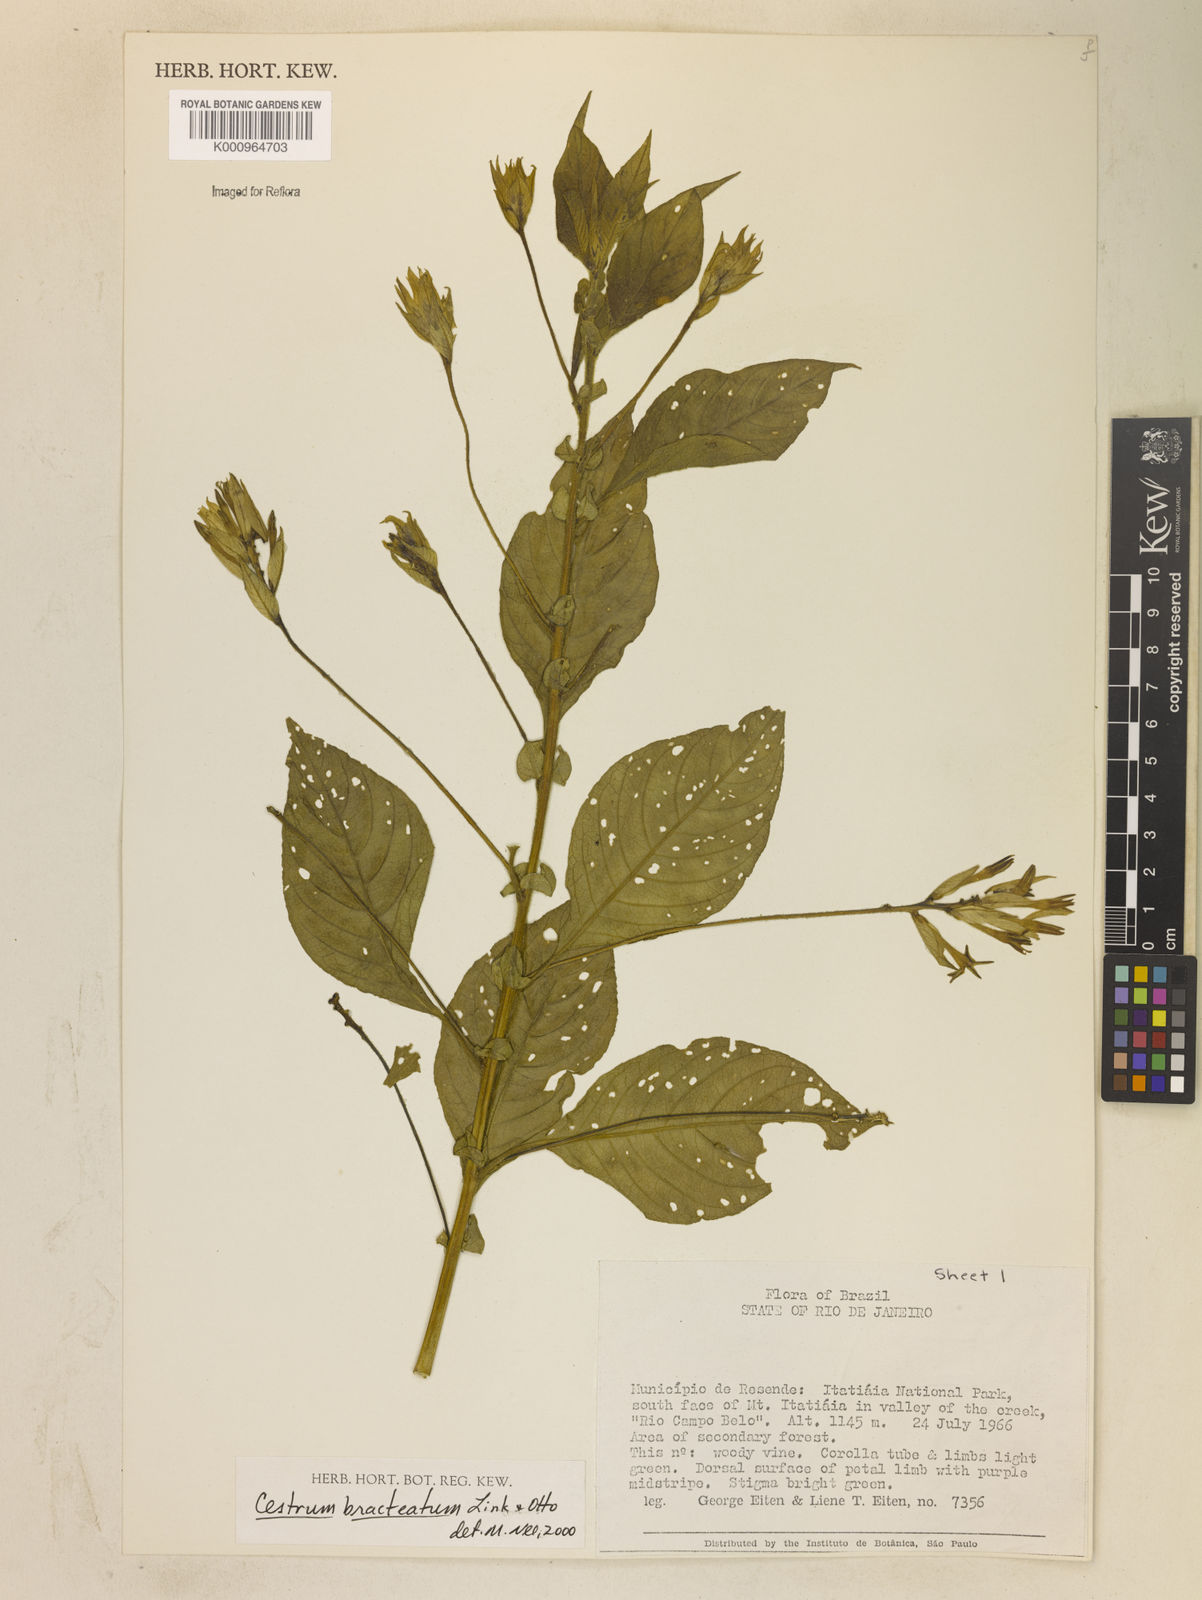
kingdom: Plantae
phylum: Tracheophyta
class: Magnoliopsida
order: Solanales
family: Solanaceae
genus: Cestrum
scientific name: Cestrum bracteatum
